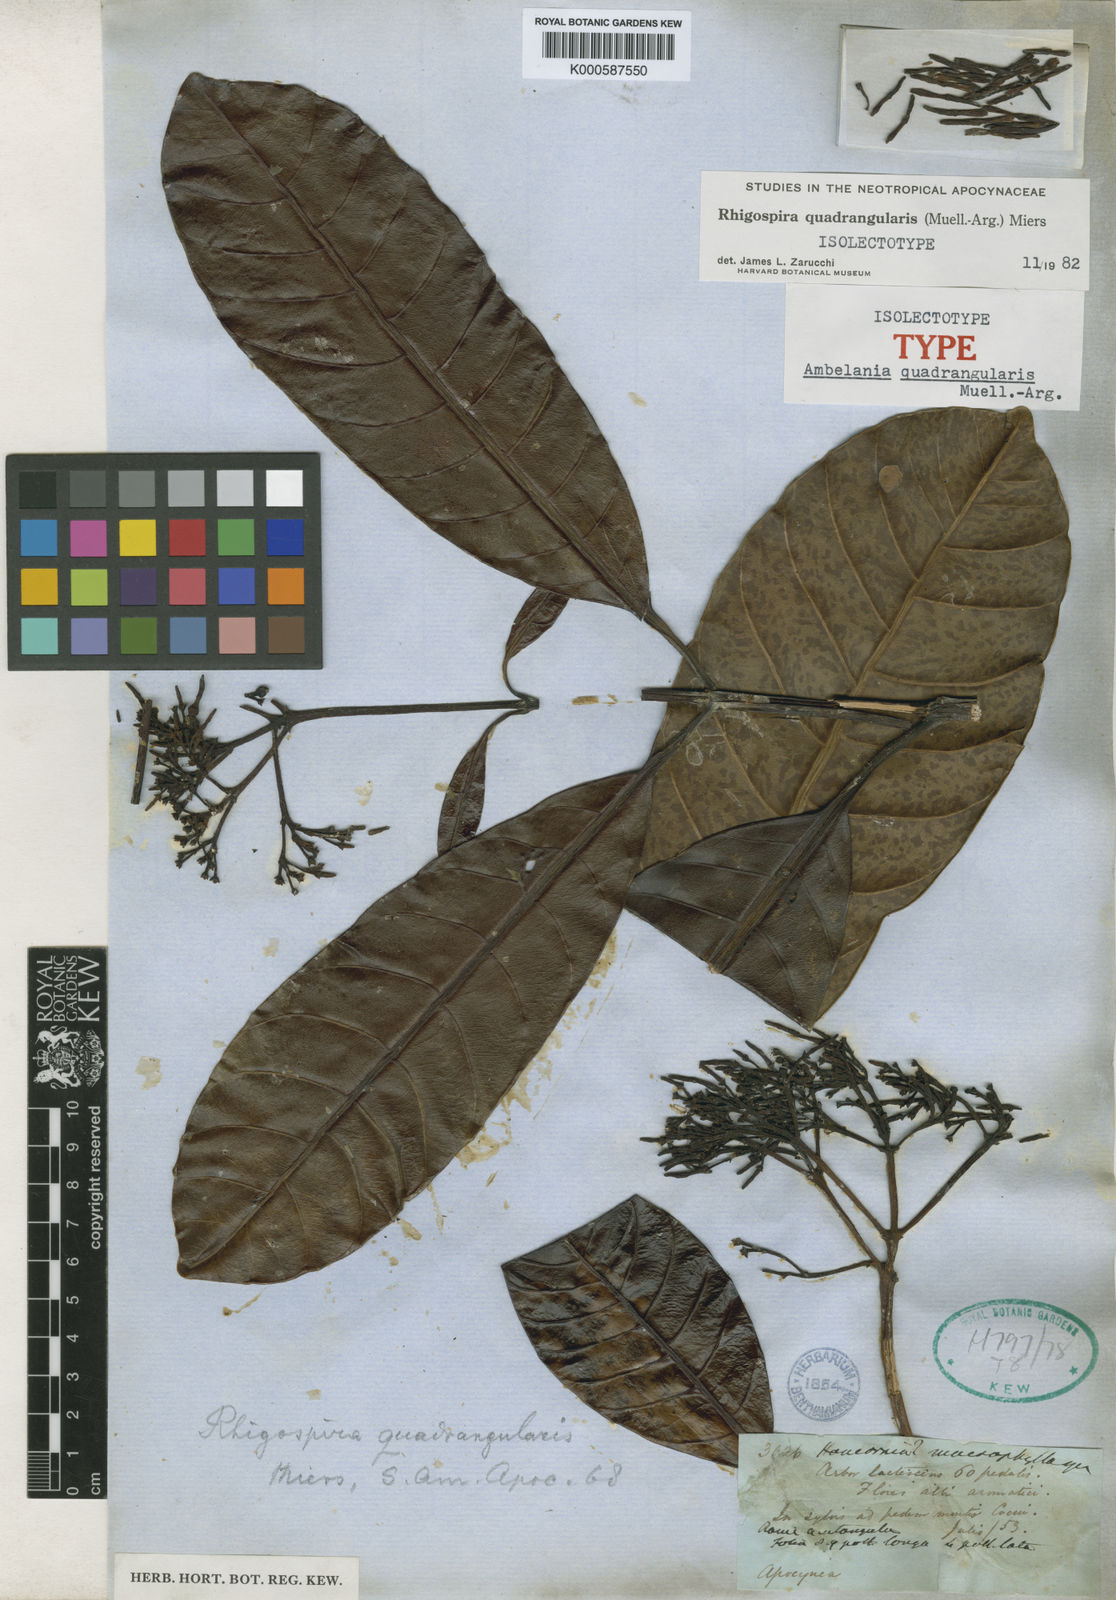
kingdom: Plantae
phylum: Tracheophyta
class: Magnoliopsida
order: Gentianales
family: Apocynaceae
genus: Rhigospira
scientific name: Rhigospira
